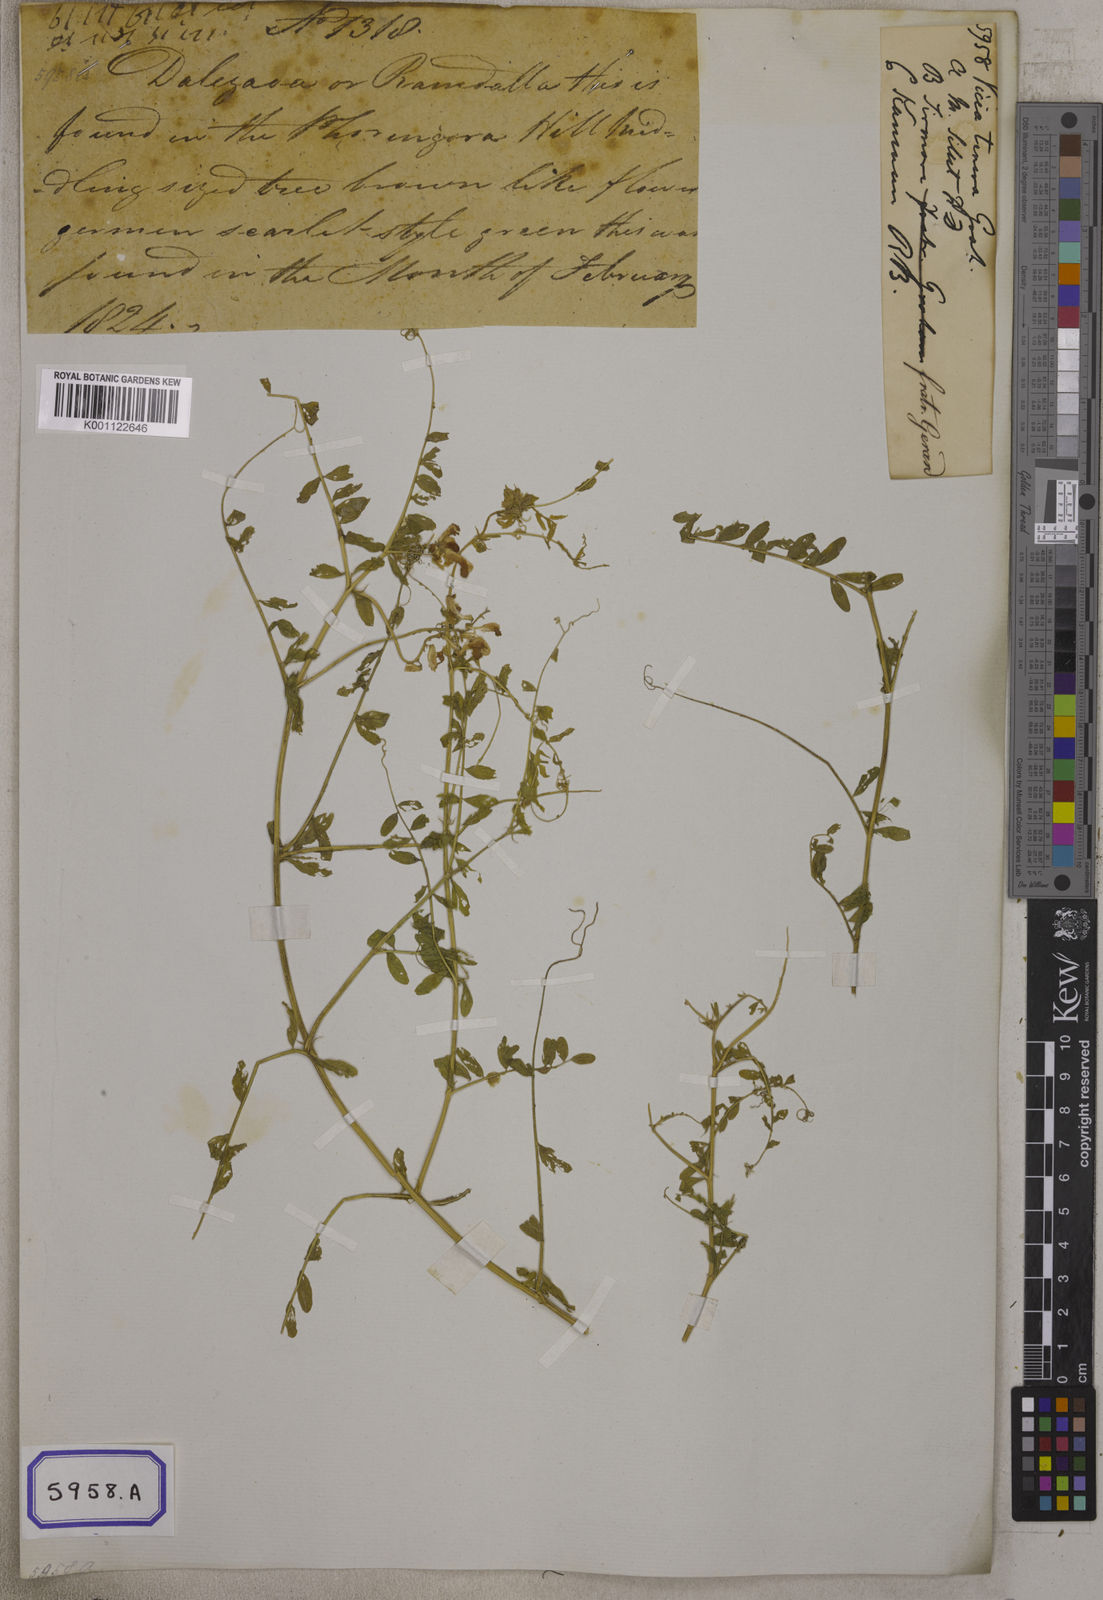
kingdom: Plantae
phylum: Tracheophyta
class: Magnoliopsida
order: Fabales
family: Fabaceae
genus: Vicia
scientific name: Vicia
